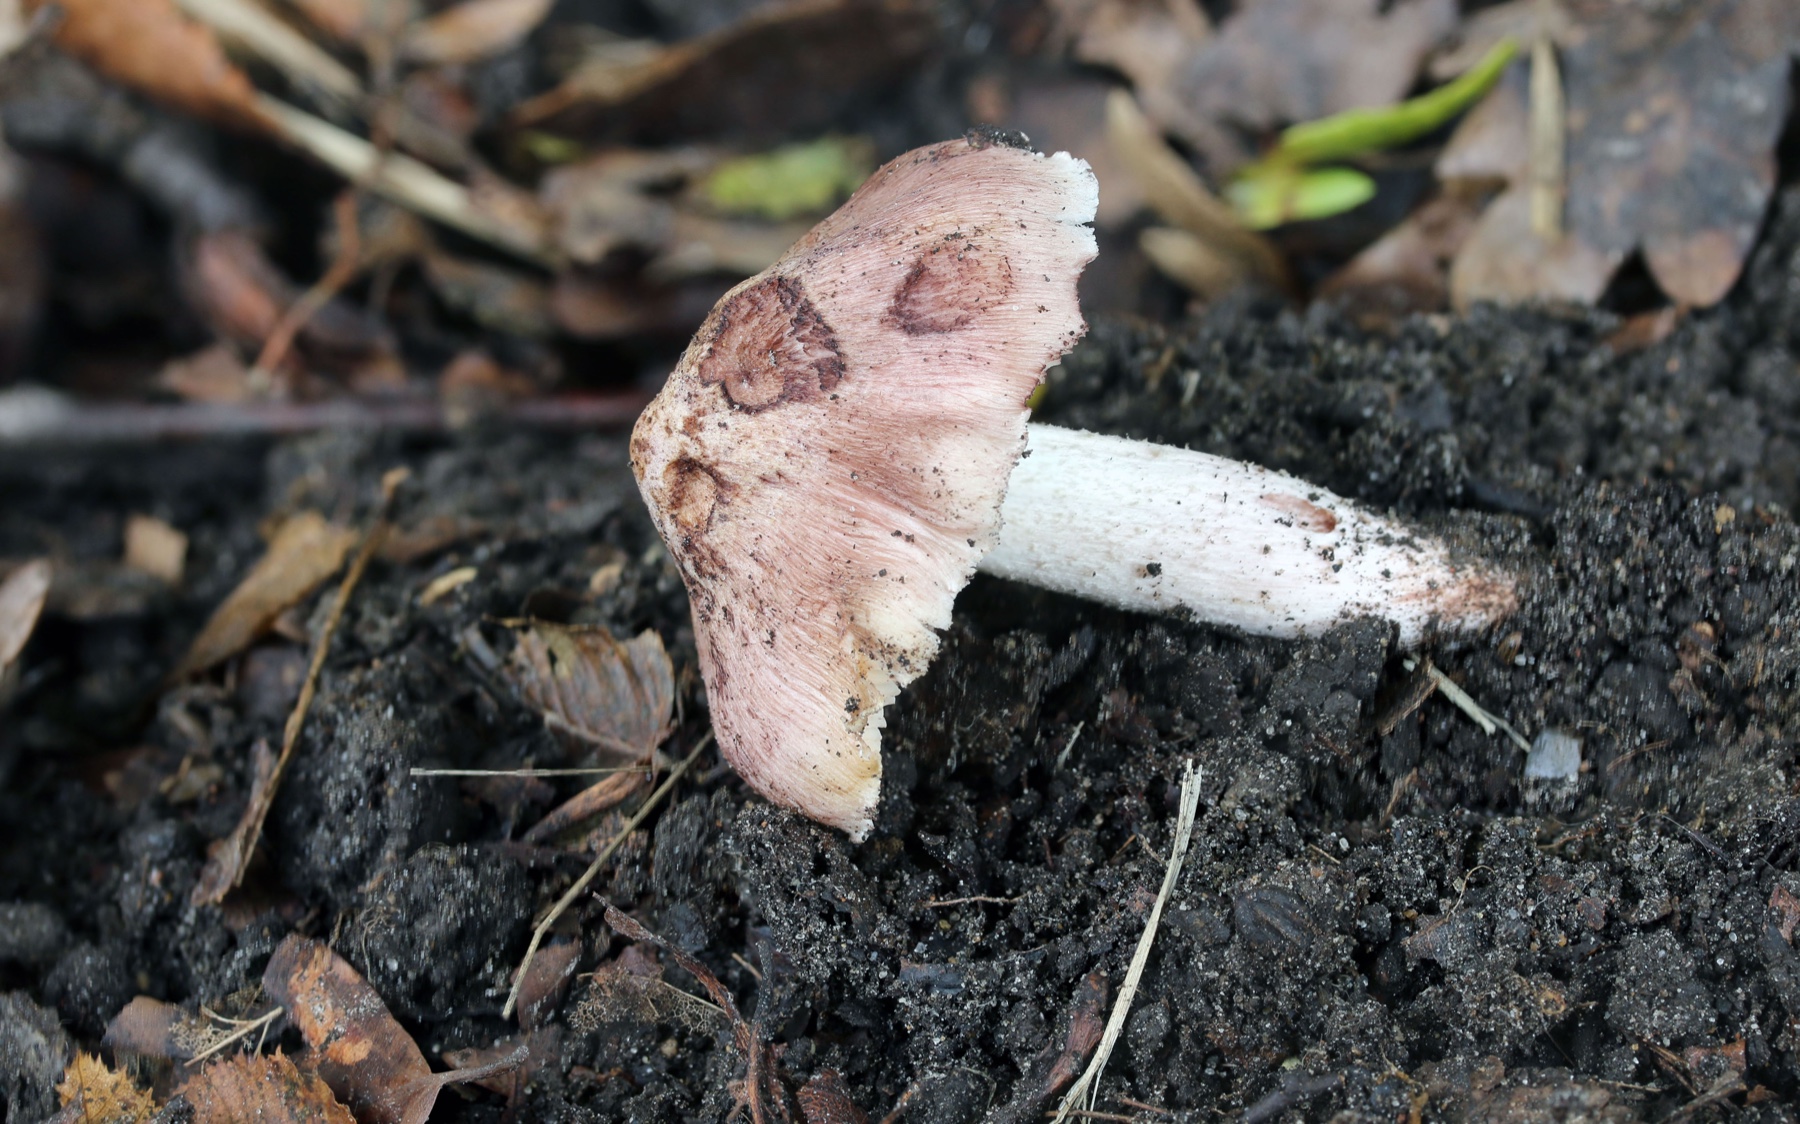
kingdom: Fungi
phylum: Basidiomycota
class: Agaricomycetes
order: Agaricales
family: Inocybaceae
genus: Inosperma
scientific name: Inosperma adaequatum
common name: vinrød trævlhat
